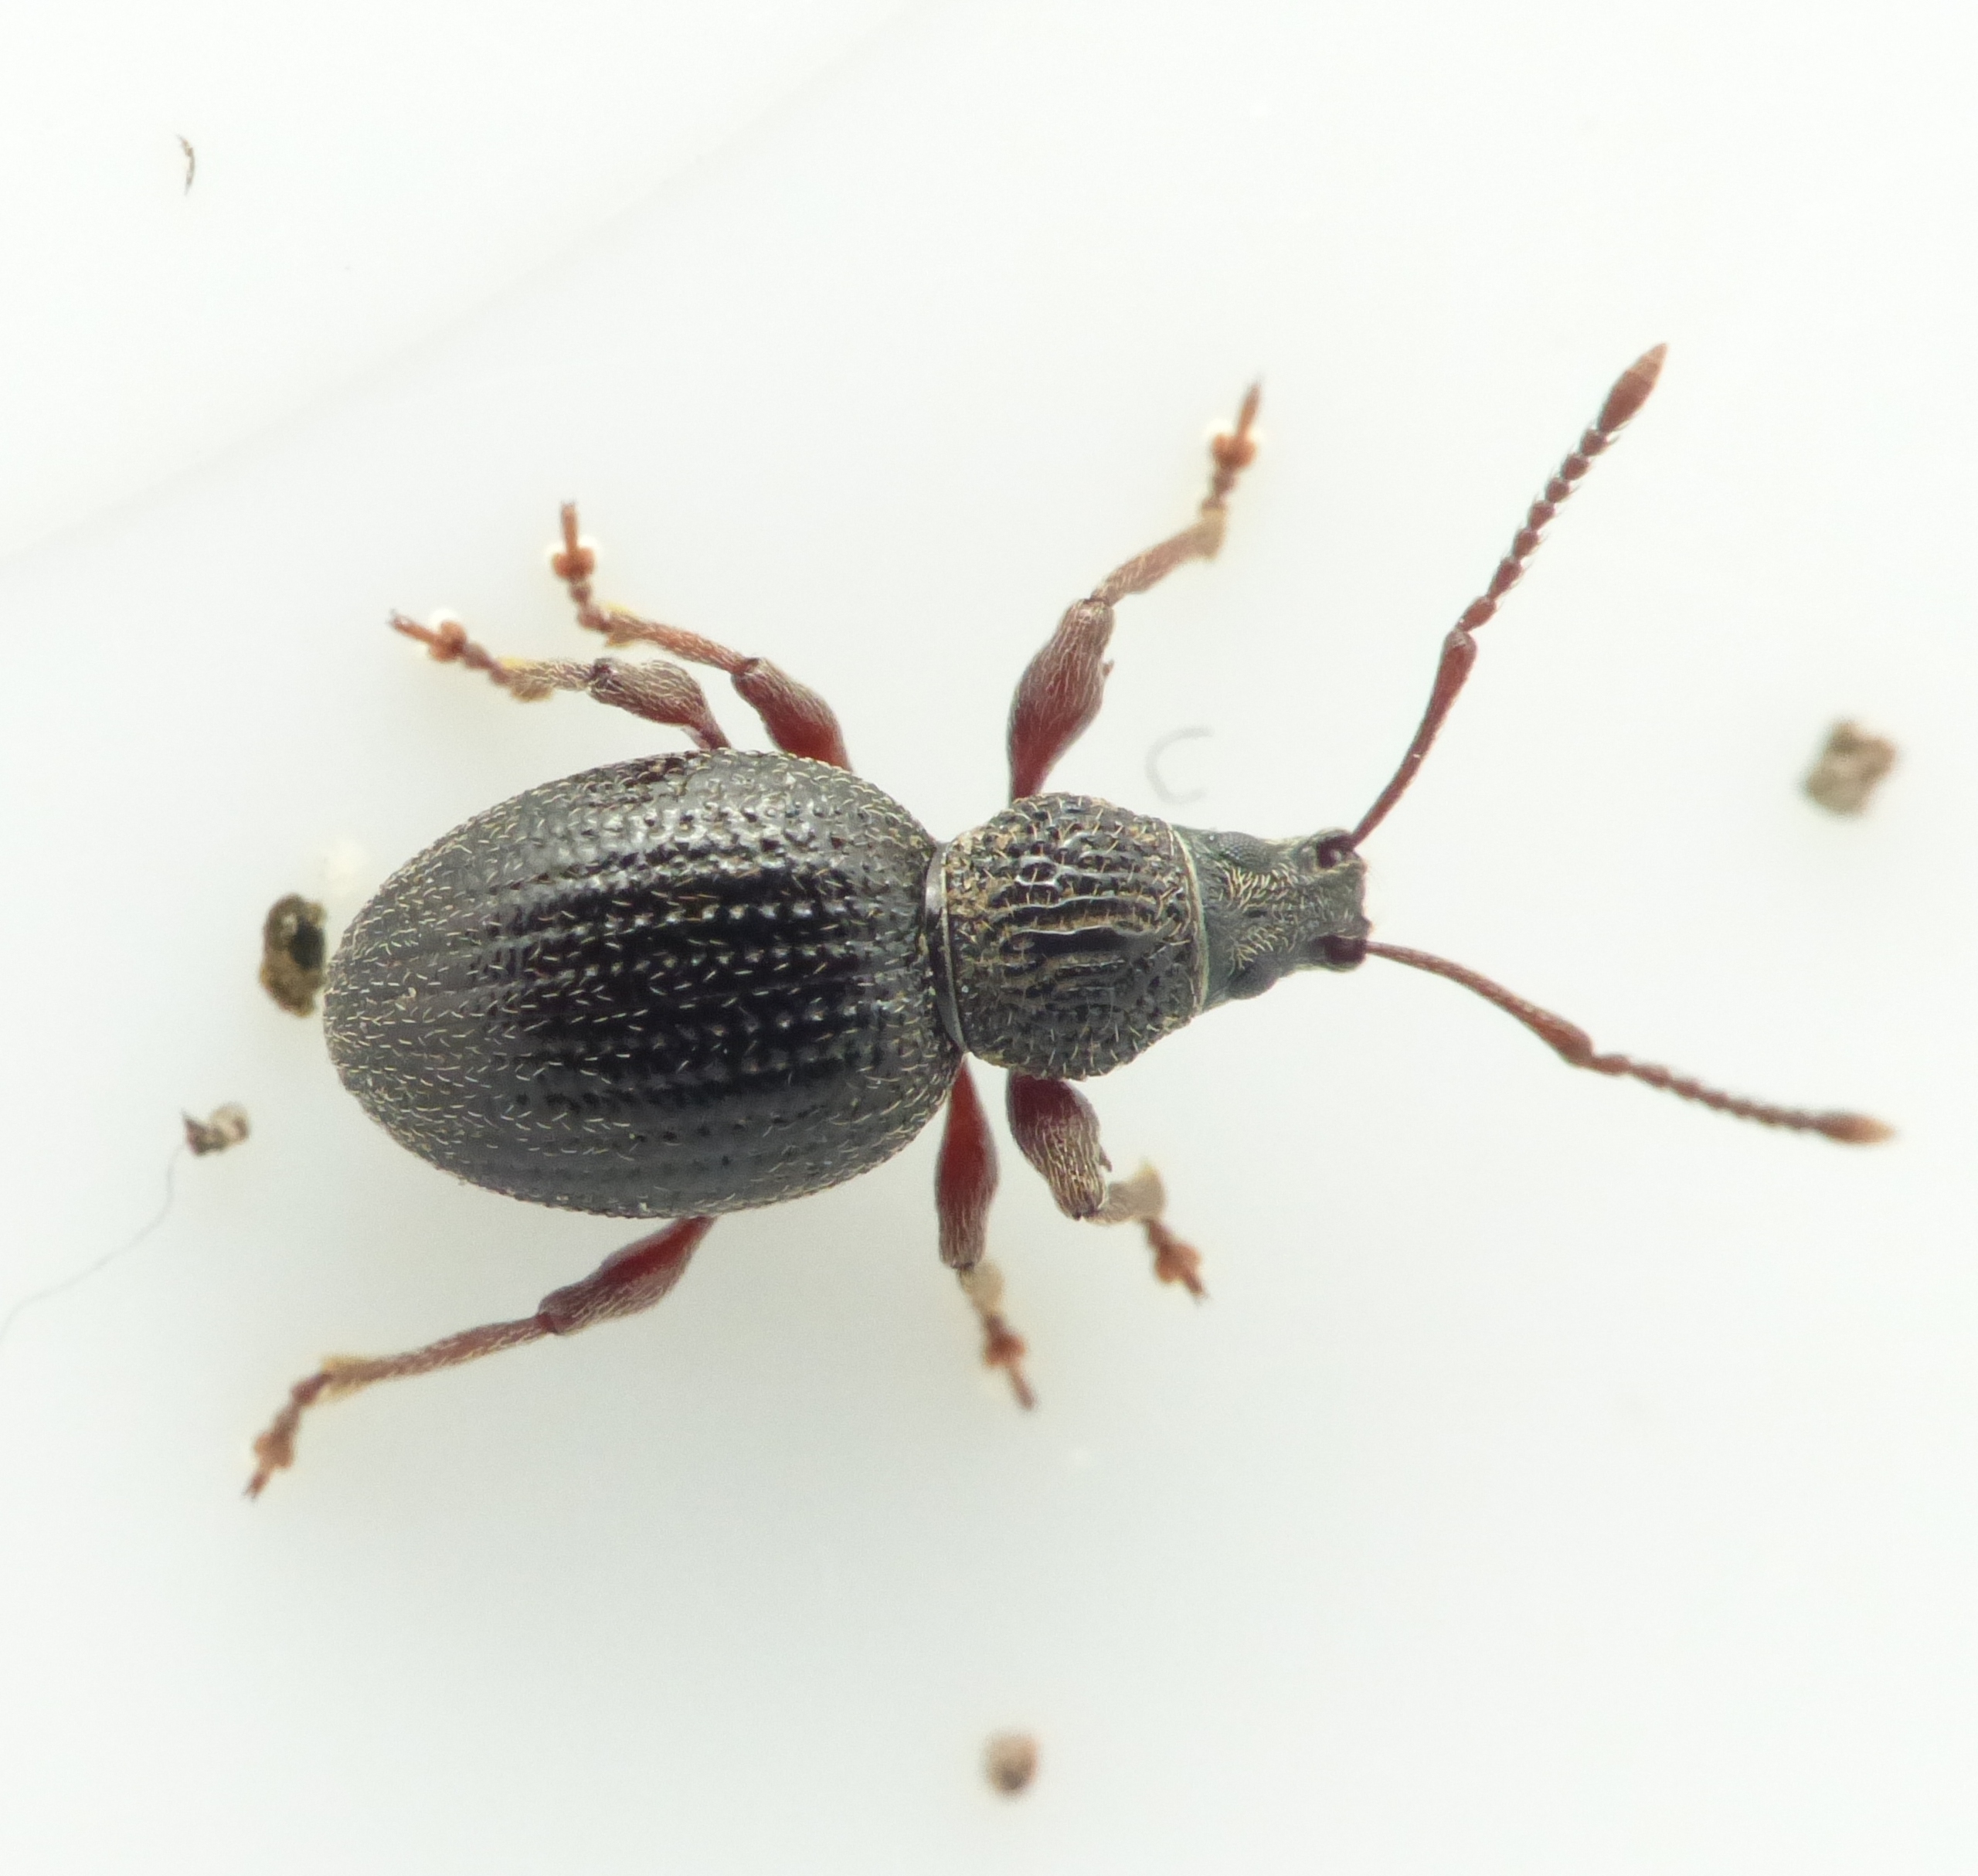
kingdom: Animalia
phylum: Arthropoda
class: Insecta
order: Coleoptera
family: Curculionidae
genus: Otiorhynchus
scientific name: Otiorhynchus ovatus
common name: Jordbærøresnudebille
